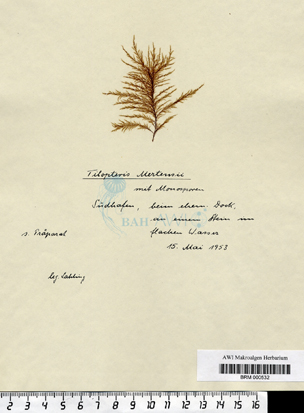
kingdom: Chromista
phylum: Ochrophyta
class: Phaeophyceae
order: Tilopteridales
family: Tilopteridaceae
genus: Tilopteris
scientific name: Tilopteris mertensii
